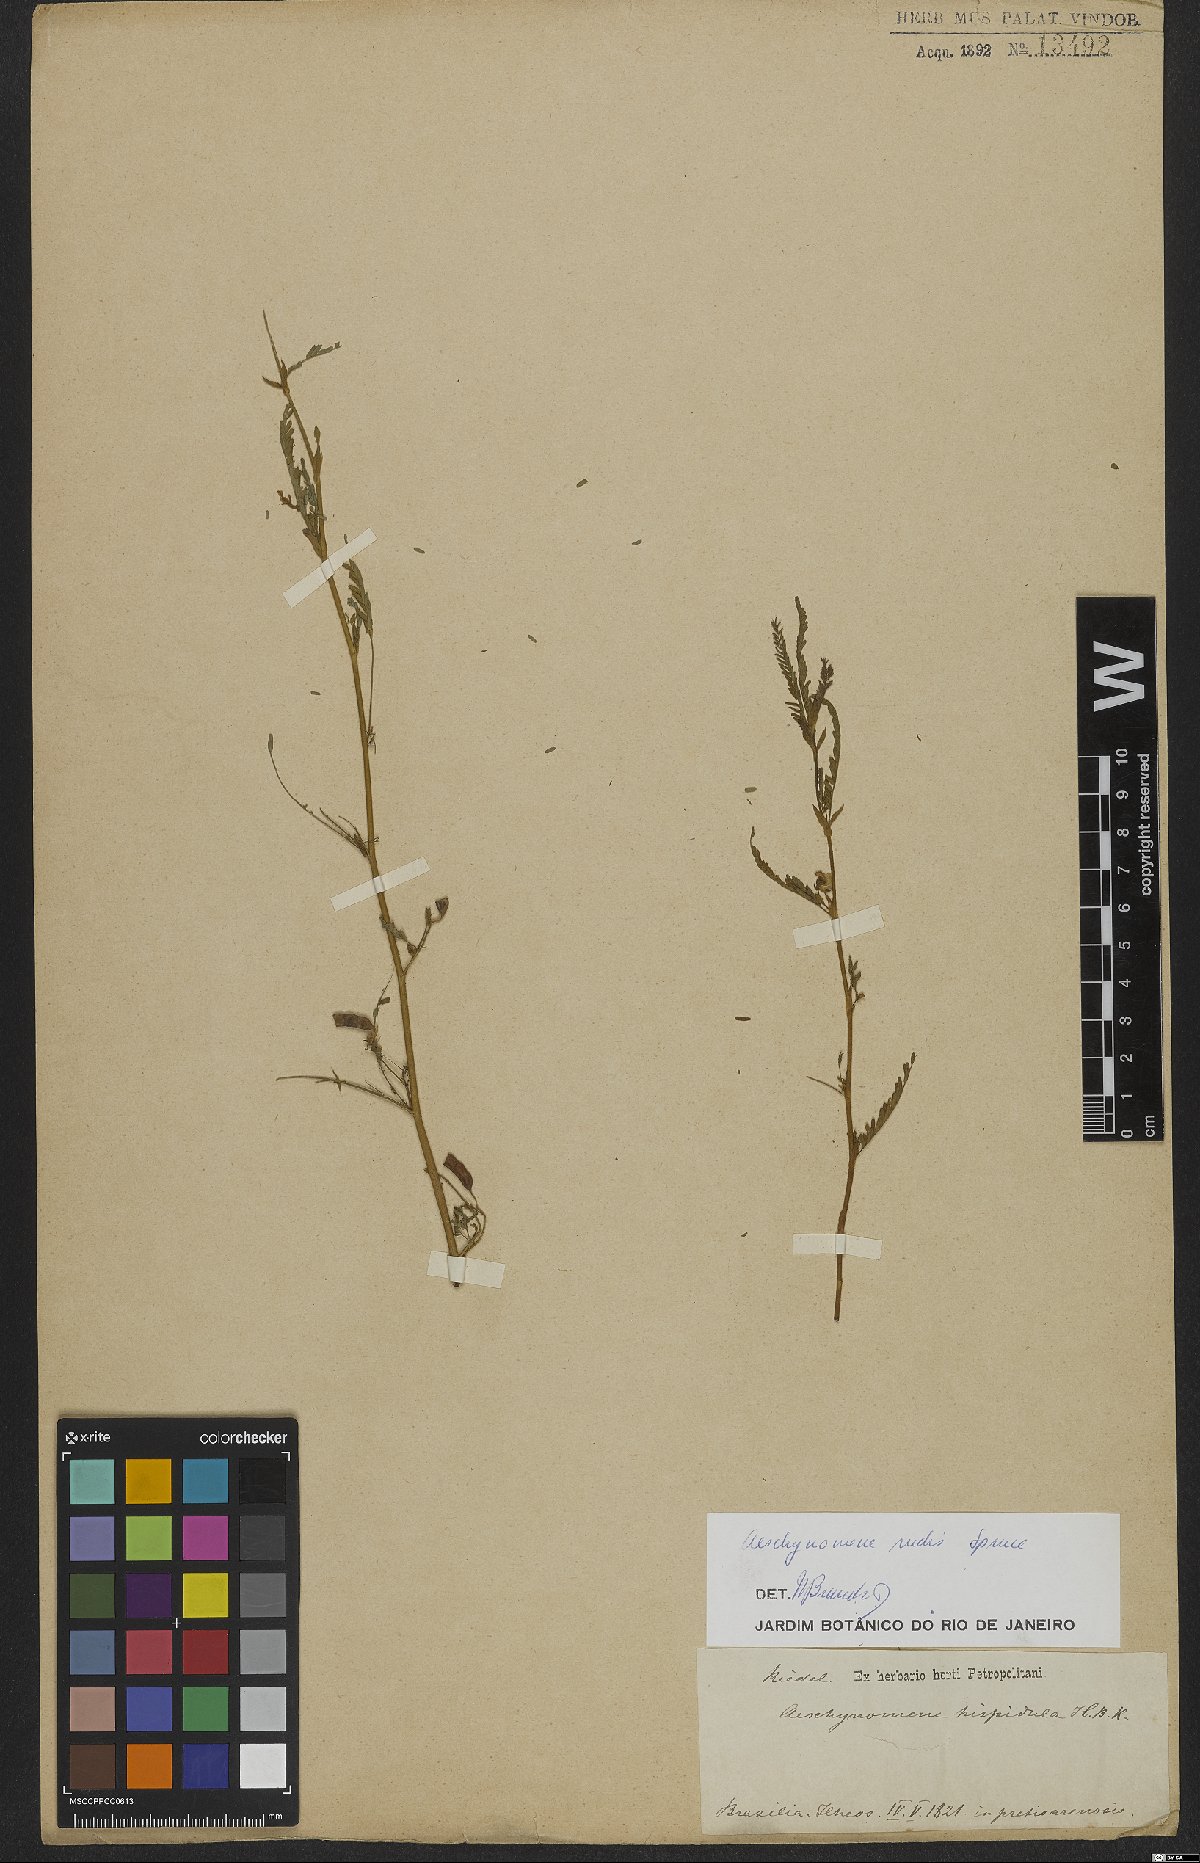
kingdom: Plantae
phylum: Tracheophyta
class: Magnoliopsida
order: Fabales
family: Fabaceae
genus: Aeschynomene
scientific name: Aeschynomene rudis
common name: Rough joint-vetch
